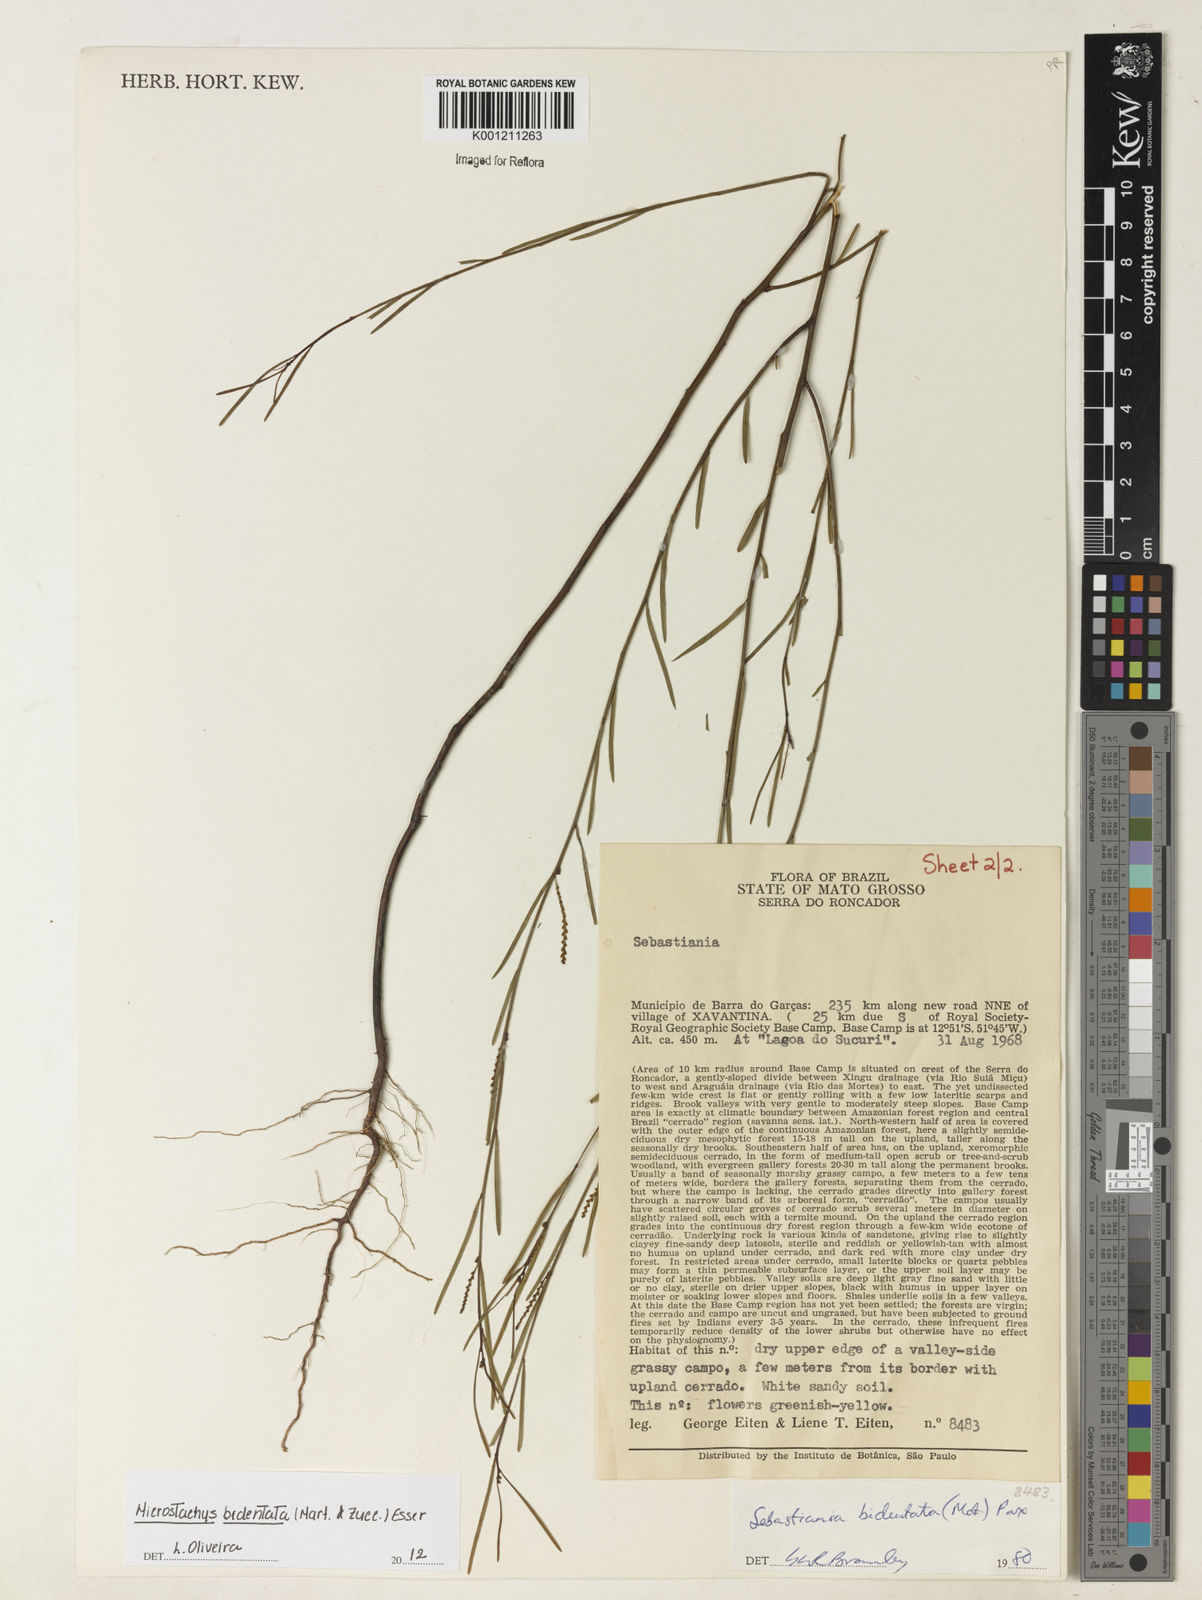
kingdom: Plantae
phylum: Tracheophyta
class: Magnoliopsida
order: Malpighiales
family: Euphorbiaceae
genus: Microstachys
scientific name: Microstachys bidentata
